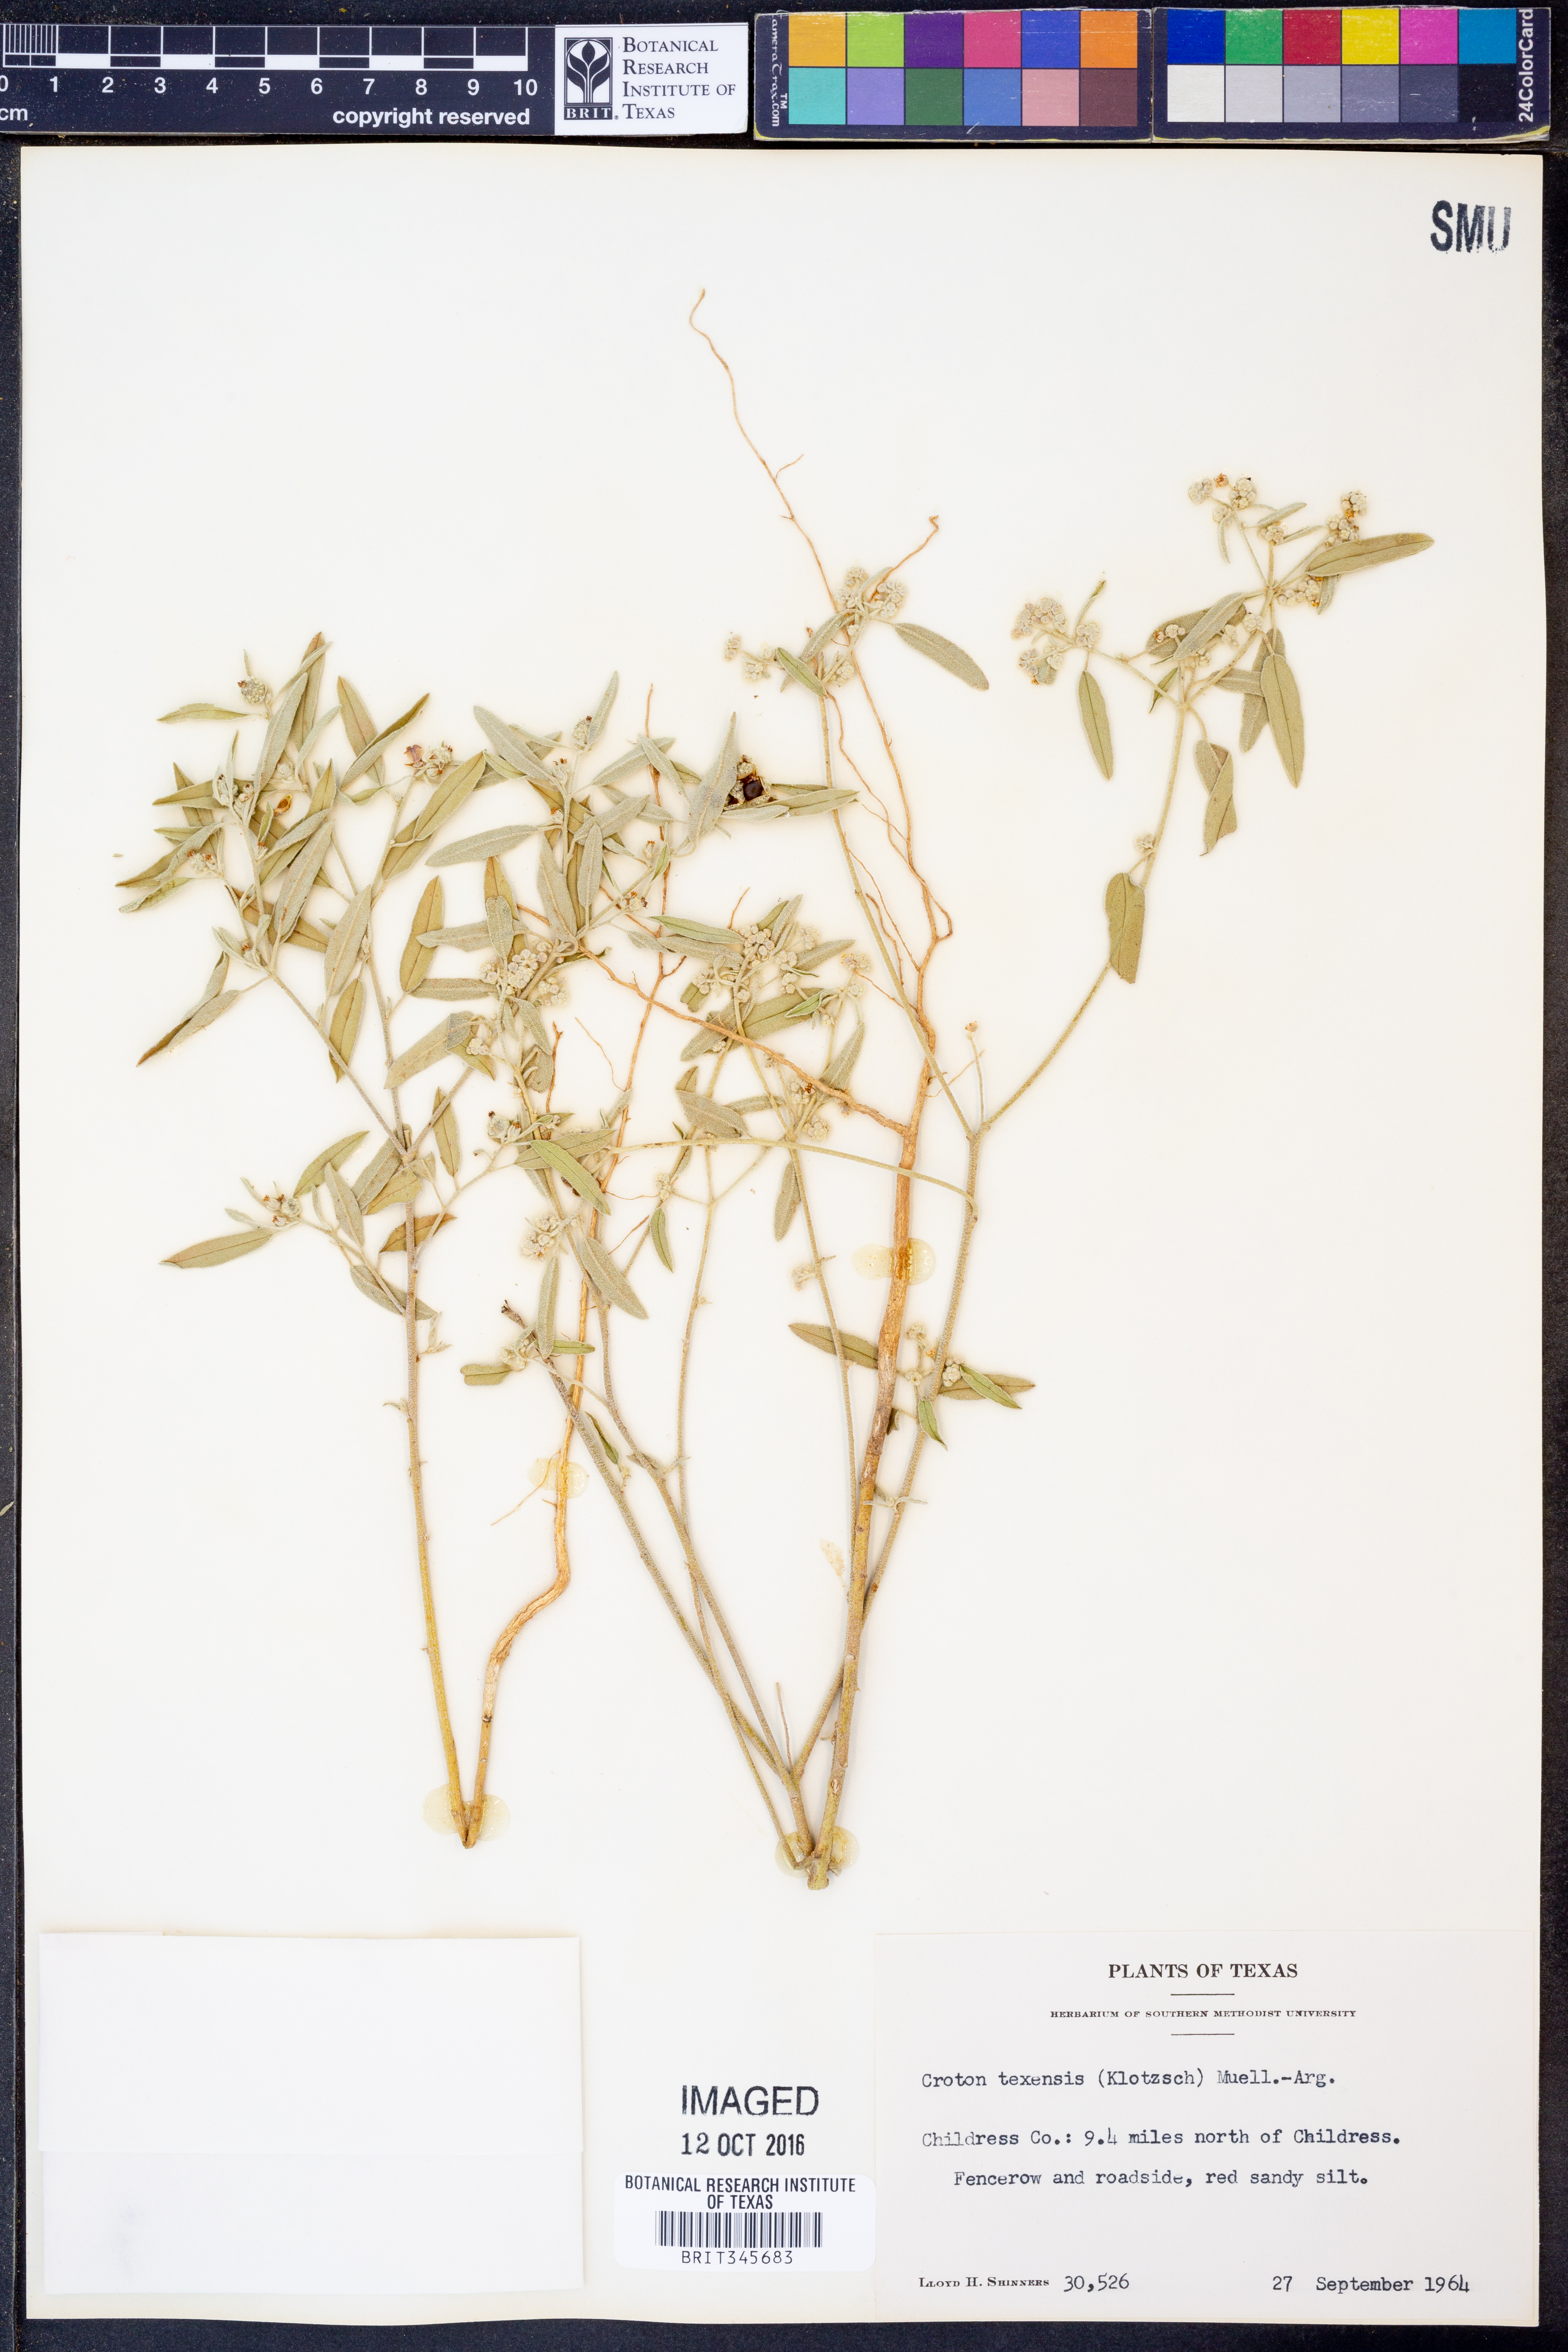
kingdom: Plantae
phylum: Tracheophyta
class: Magnoliopsida
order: Malpighiales
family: Euphorbiaceae
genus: Croton
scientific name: Croton texensis
